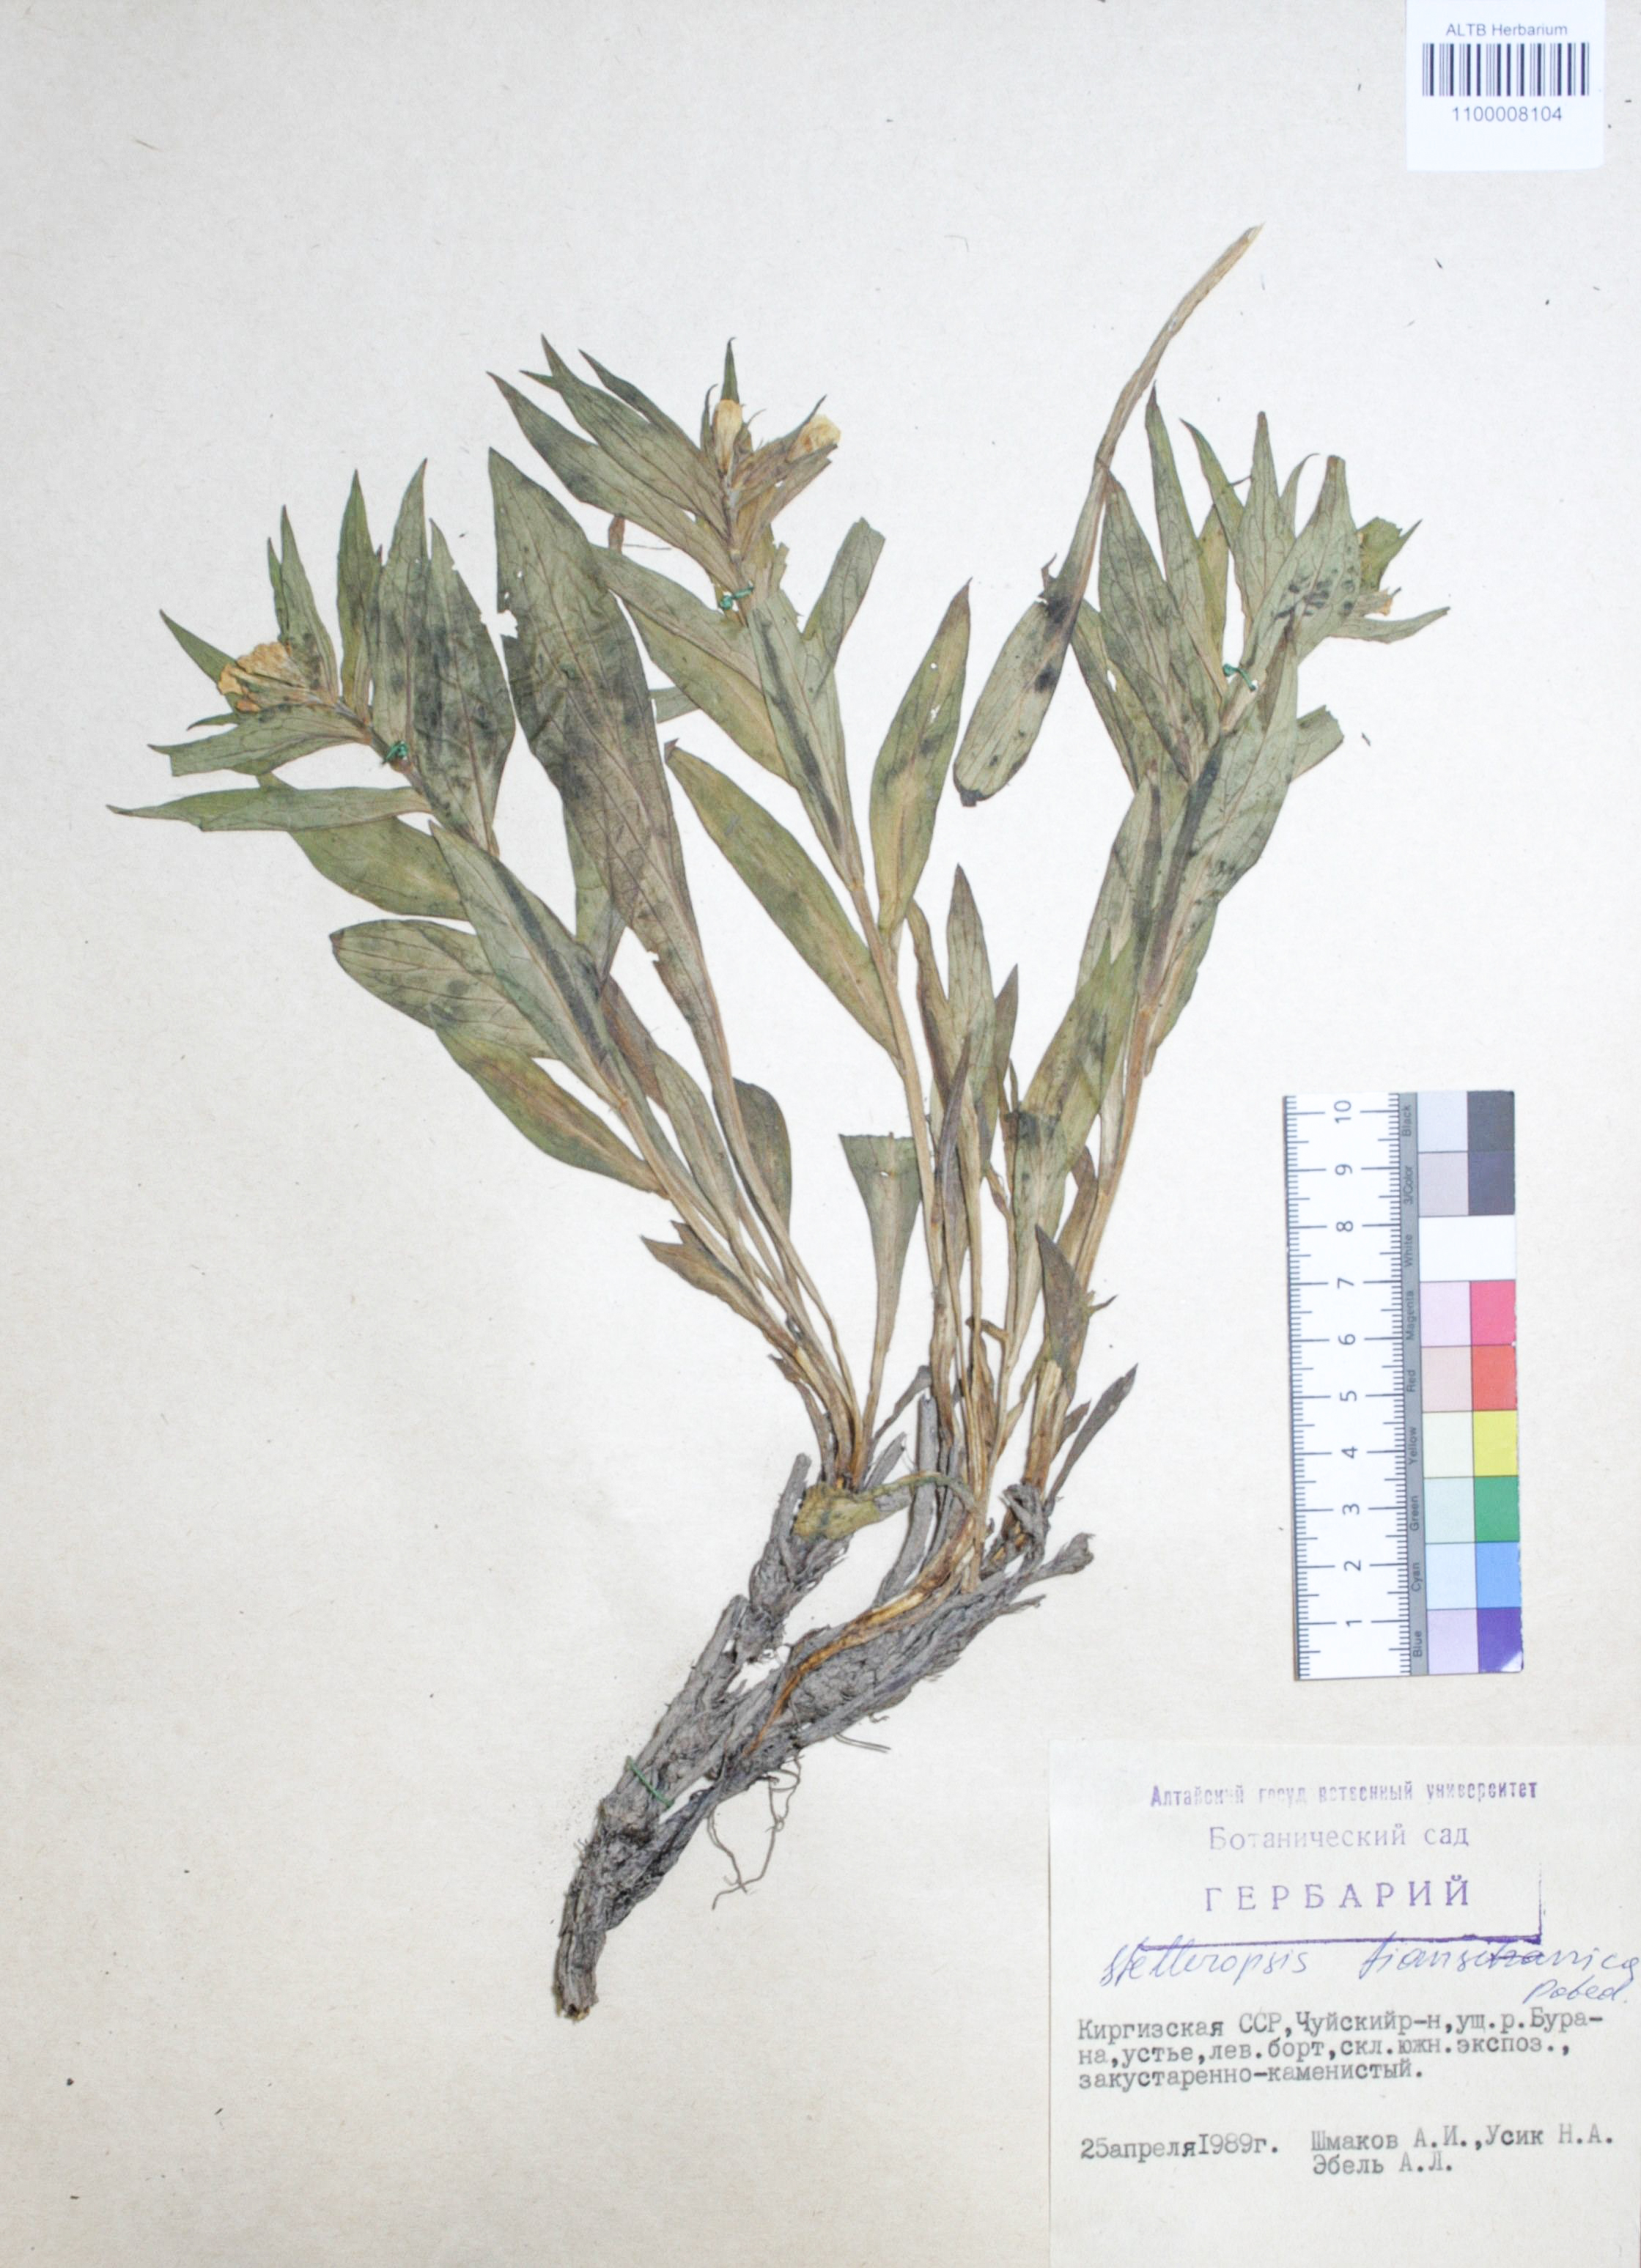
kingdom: Plantae
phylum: Tracheophyta
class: Magnoliopsida
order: Malvales
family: Thymelaeaceae
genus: Diarthron
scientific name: Diarthron tianschanicum
